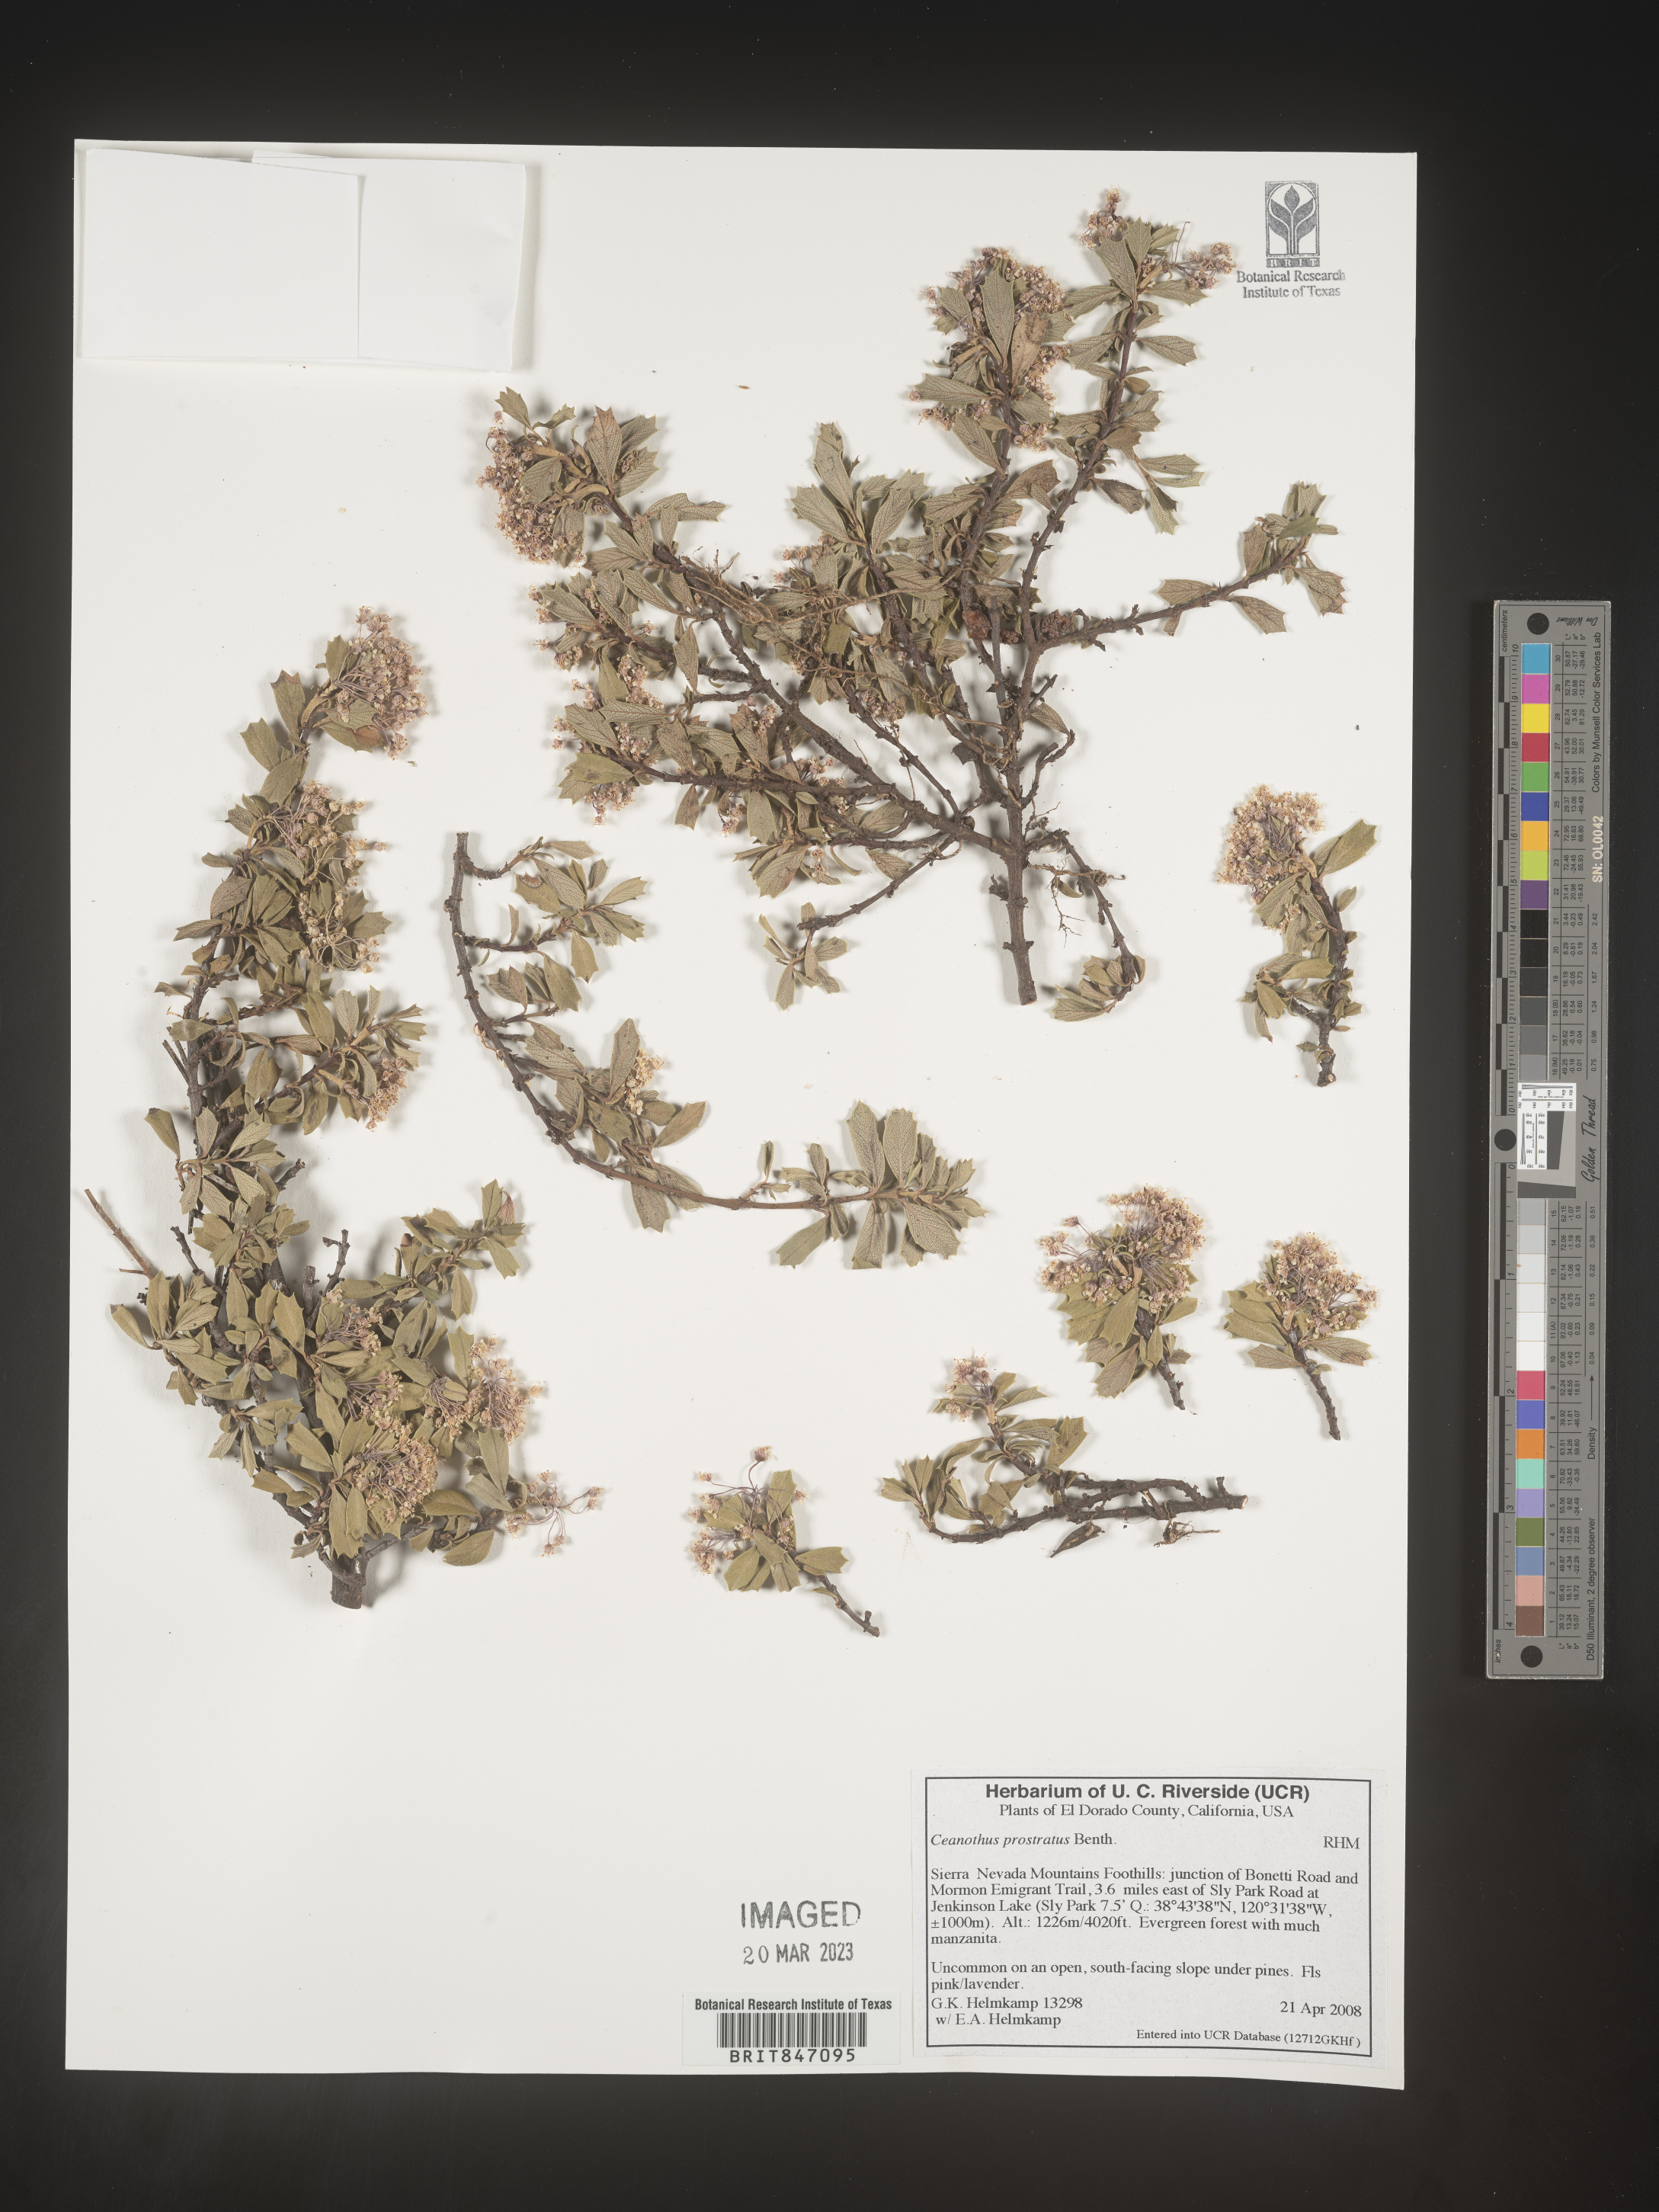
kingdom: Plantae
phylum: Tracheophyta
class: Magnoliopsida
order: Rosales
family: Rhamnaceae
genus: Ceanothus
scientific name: Ceanothus
